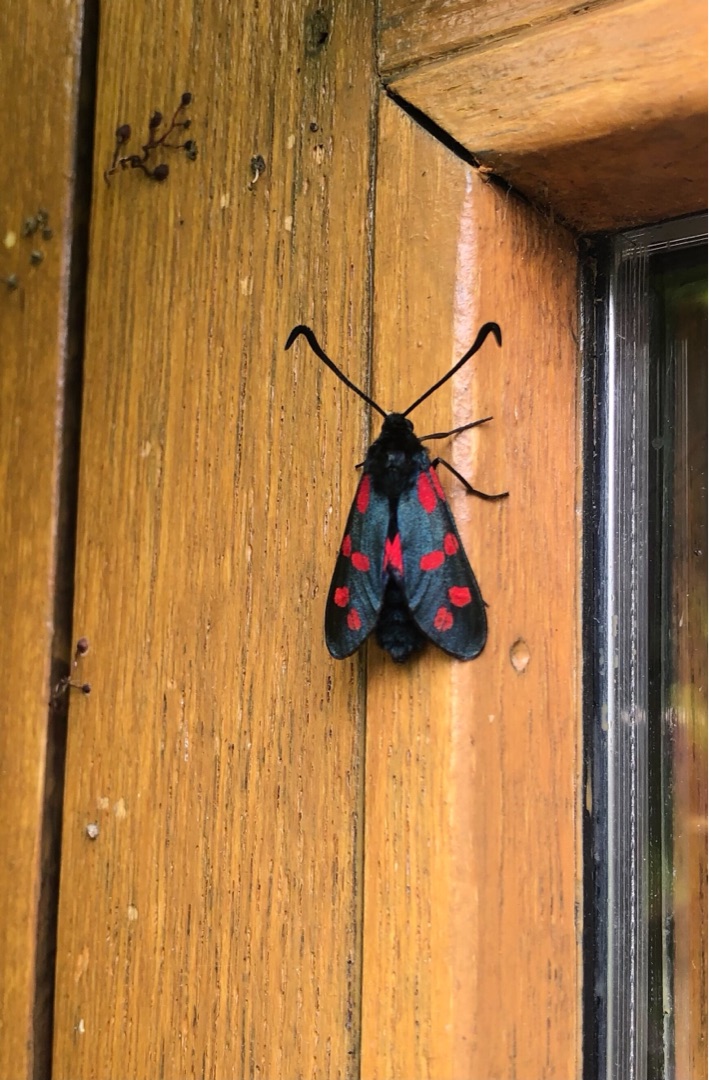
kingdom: Animalia
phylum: Arthropoda
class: Insecta
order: Lepidoptera
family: Zygaenidae
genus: Zygaena
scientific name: Zygaena filipendulae
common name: Seksplettet køllesværmer
